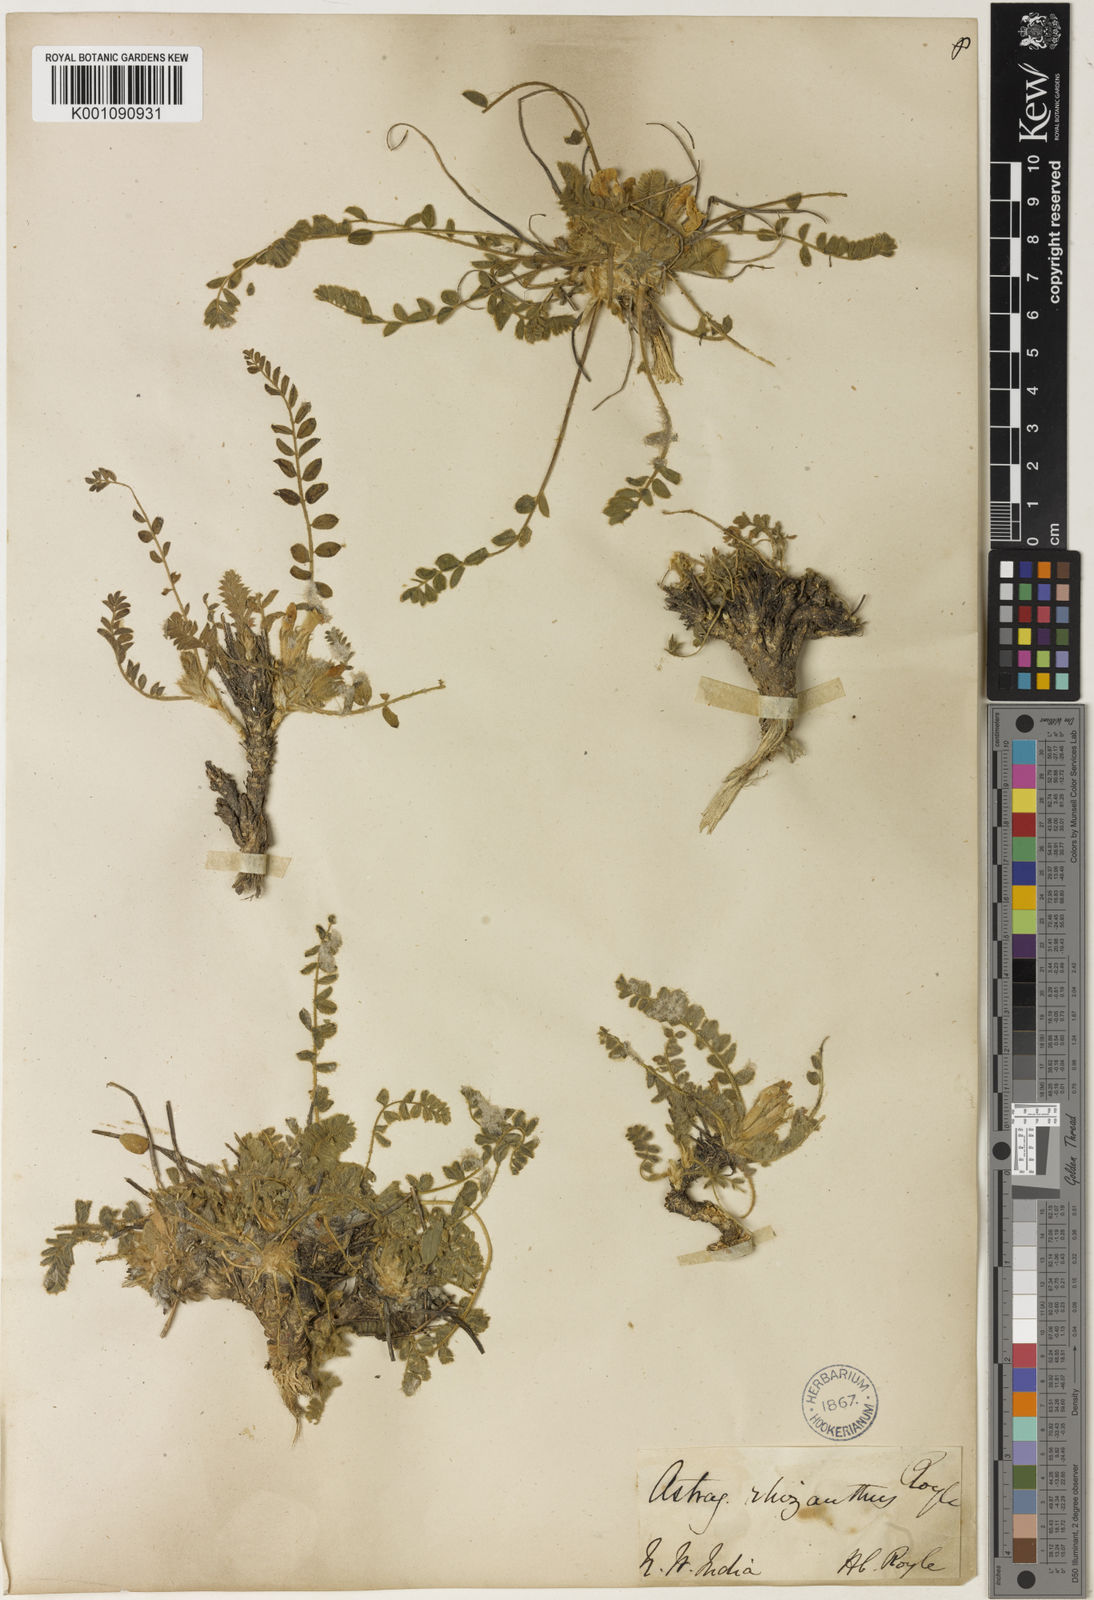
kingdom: Plantae
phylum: Tracheophyta
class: Magnoliopsida
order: Fabales
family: Fabaceae
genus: Astragalus
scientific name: Astragalus rhizanthus
